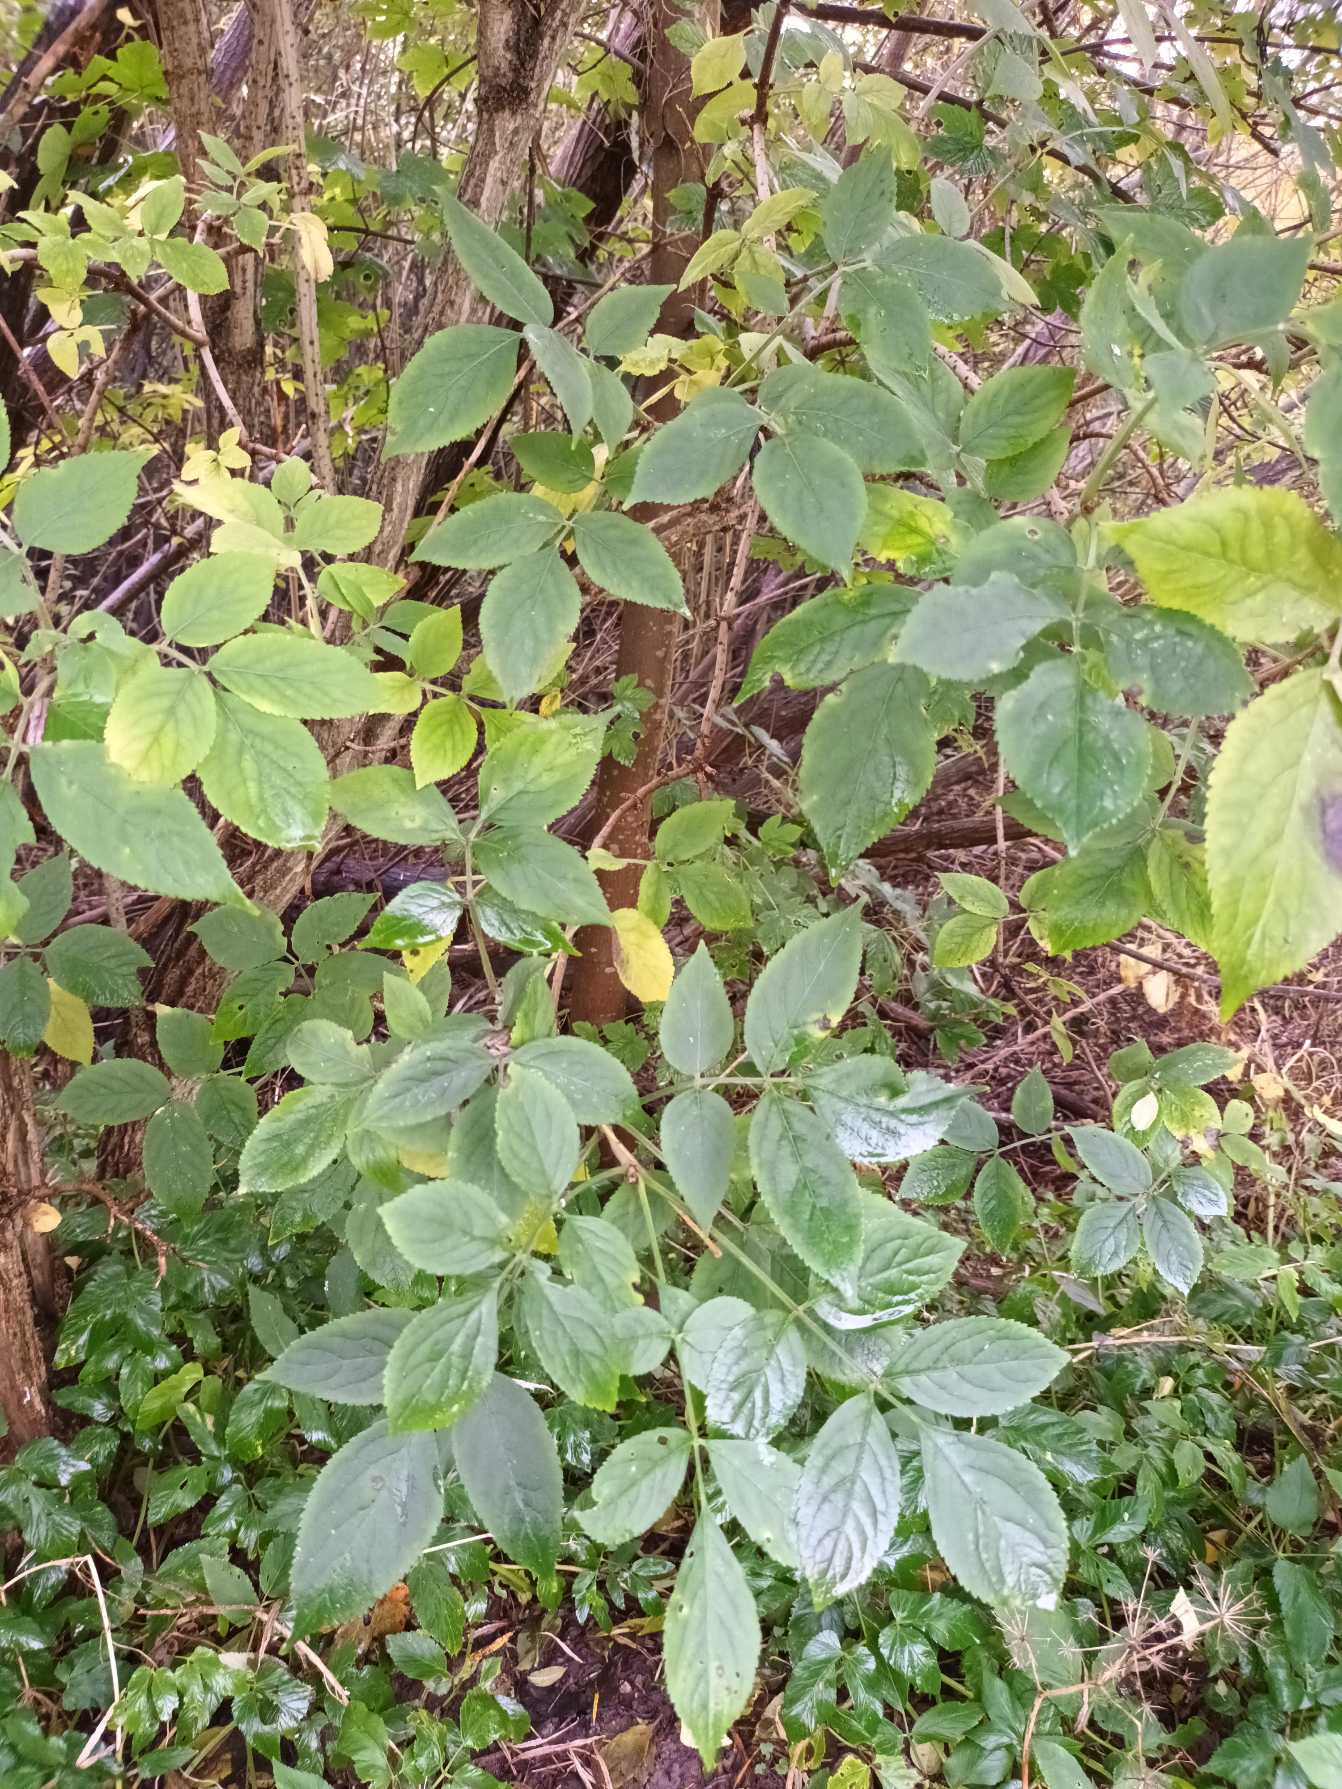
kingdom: Plantae
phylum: Tracheophyta
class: Magnoliopsida
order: Dipsacales
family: Viburnaceae
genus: Sambucus
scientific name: Sambucus nigra
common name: Almindelig hyld
